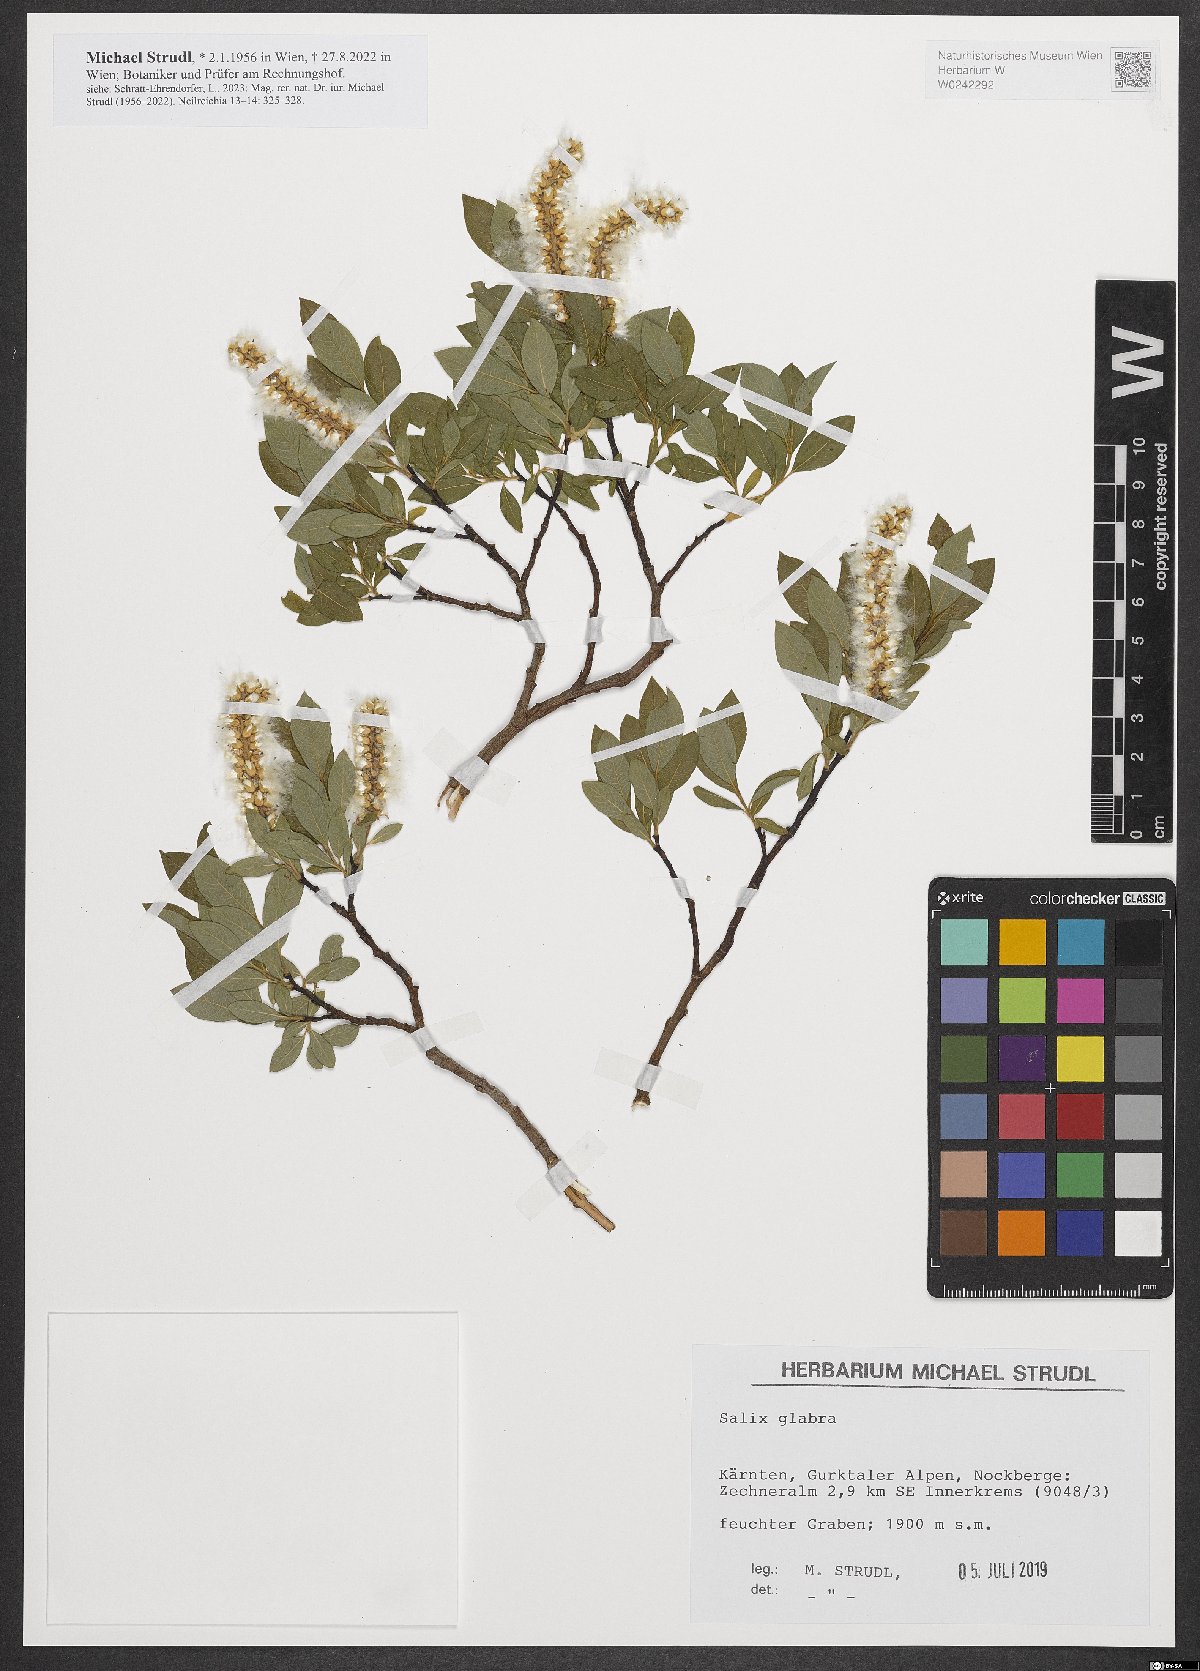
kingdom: Plantae
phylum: Tracheophyta
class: Magnoliopsida
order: Malpighiales
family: Salicaceae
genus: Salix
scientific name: Salix glabra
